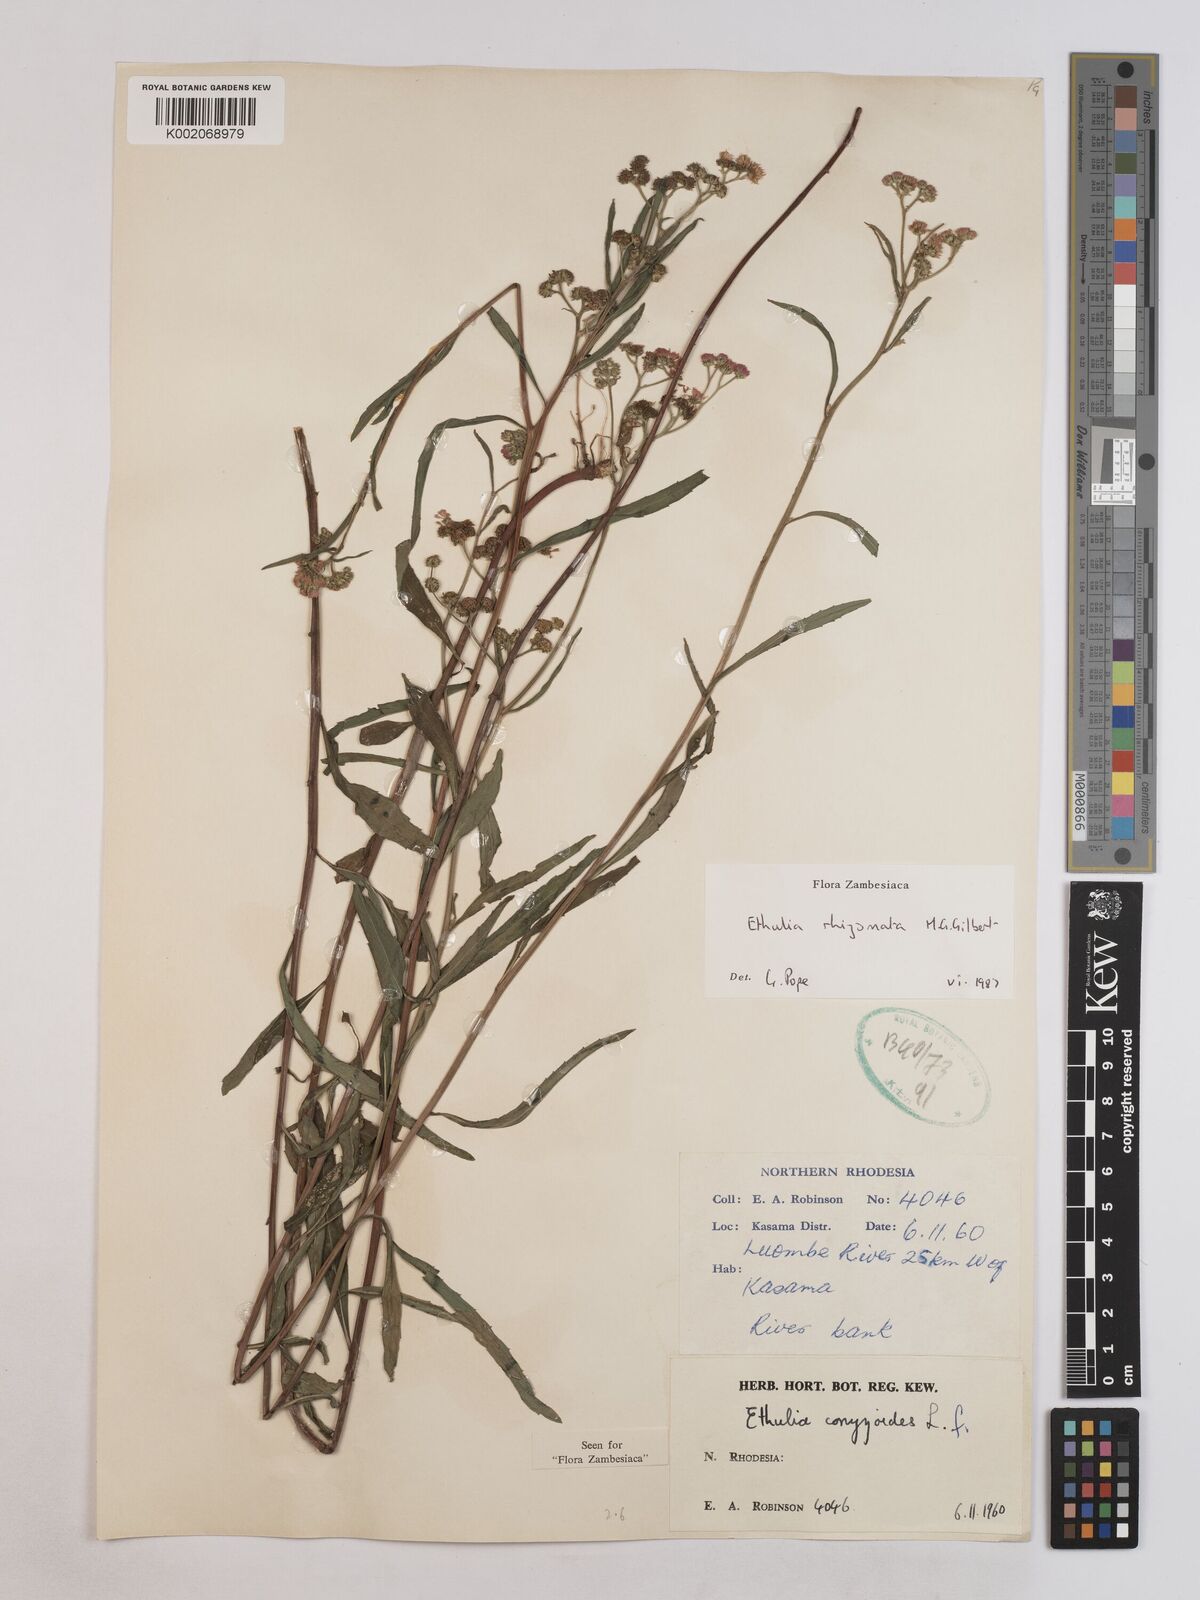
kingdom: Plantae
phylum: Tracheophyta
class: Magnoliopsida
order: Asterales
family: Asteraceae
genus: Ethulia
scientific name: Ethulia rhizomata
